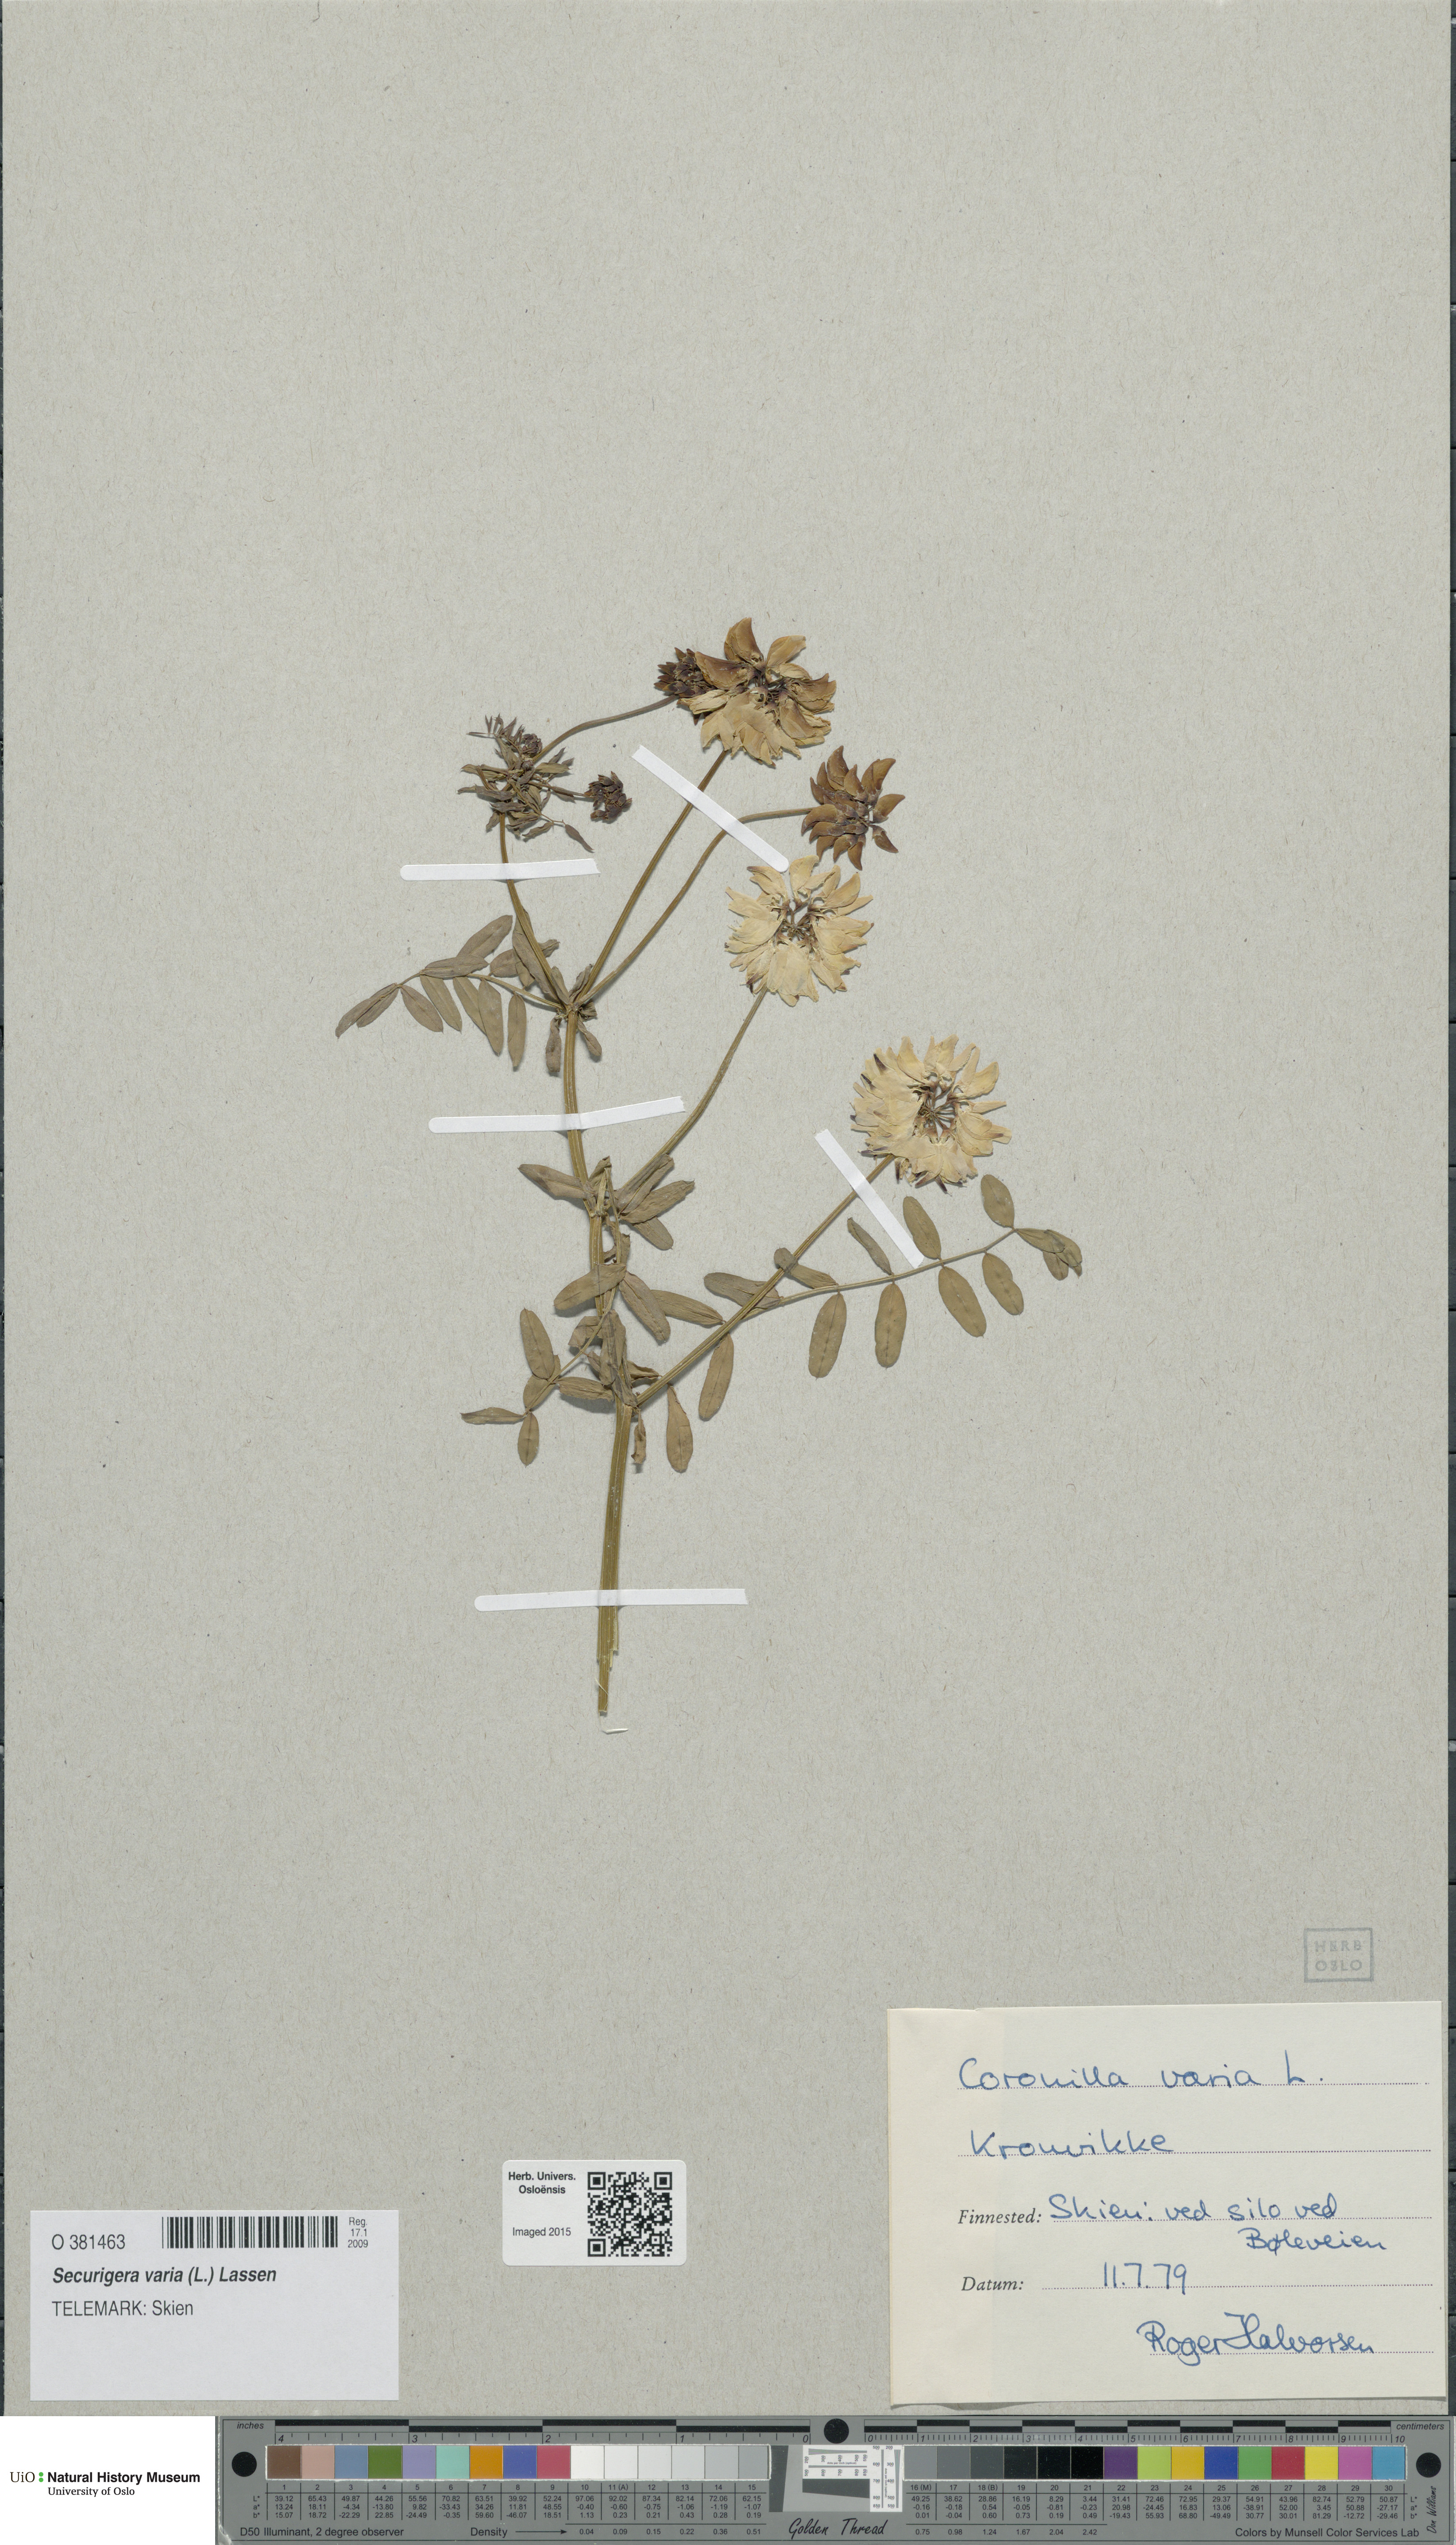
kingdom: Plantae
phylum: Tracheophyta
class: Magnoliopsida
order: Fabales
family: Fabaceae
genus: Coronilla
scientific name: Coronilla varia
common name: Crownvetch
